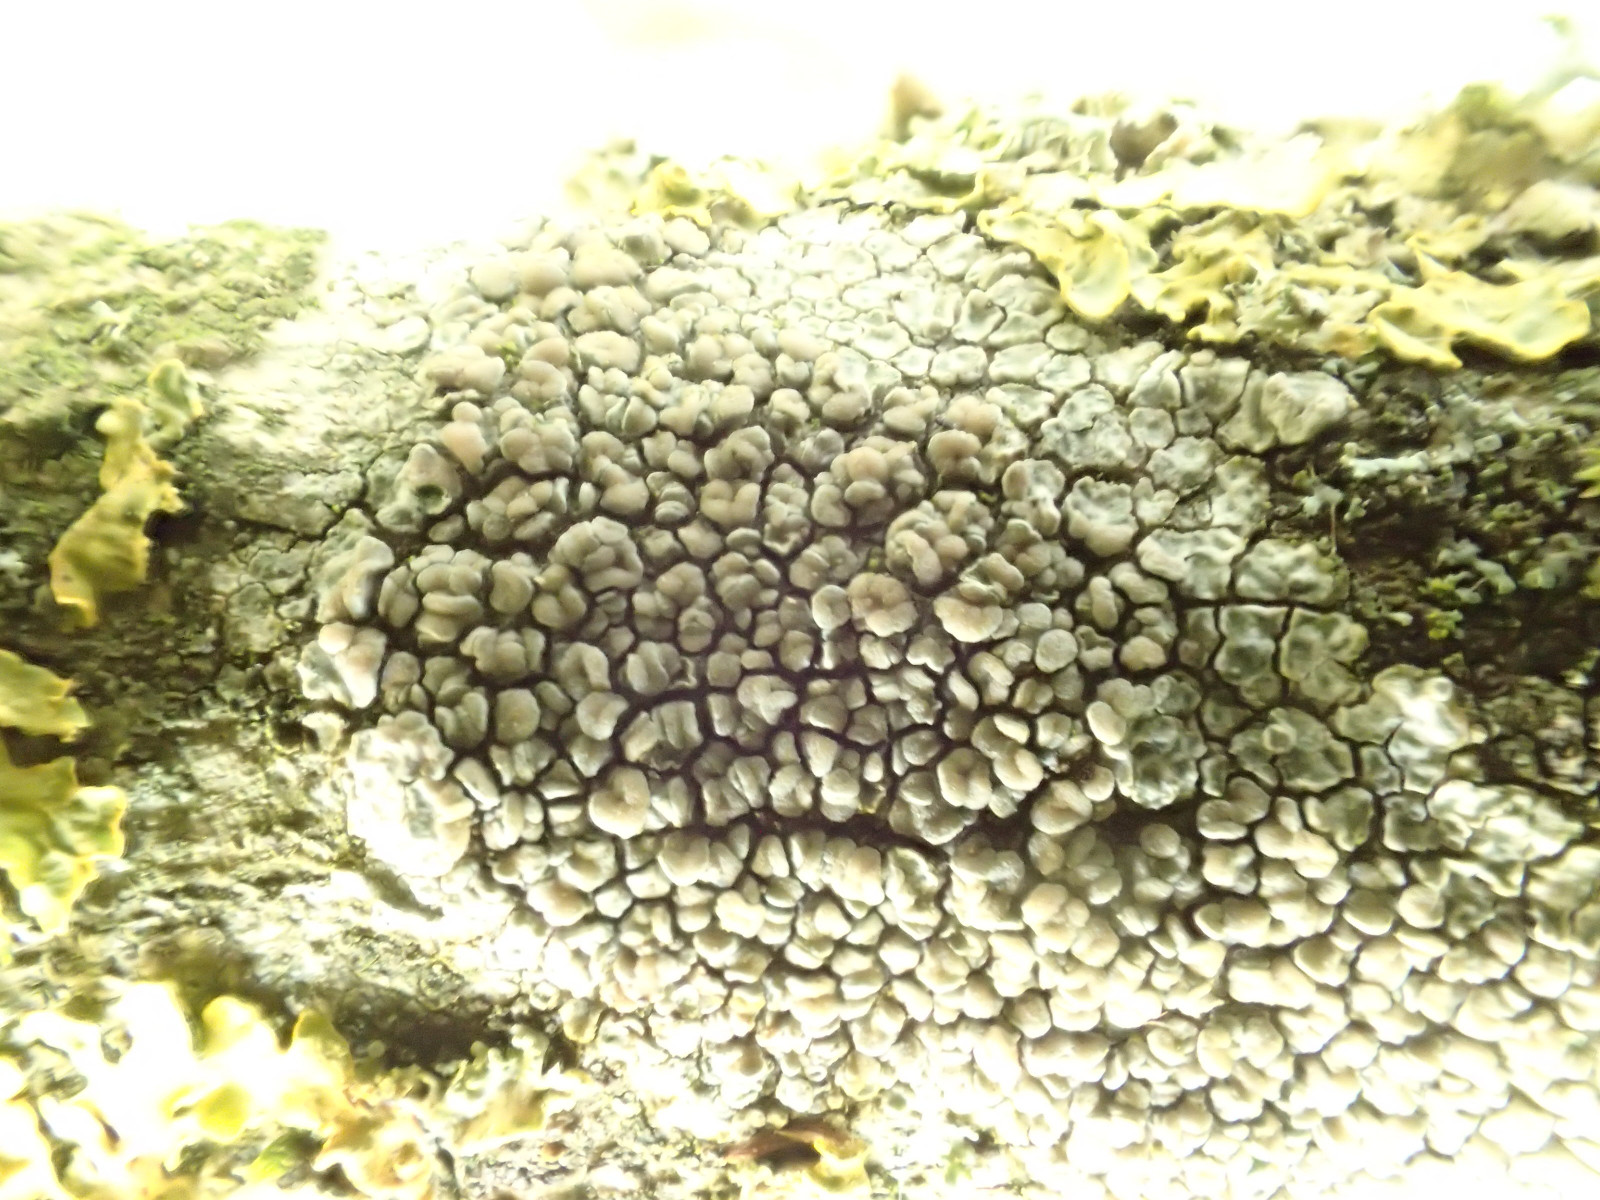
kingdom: Fungi
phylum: Ascomycota
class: Lecanoromycetes
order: Lecanorales
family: Lecanoraceae
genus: Glaucomaria
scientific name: Glaucomaria carpinea
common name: hviddugget kantskivelav
